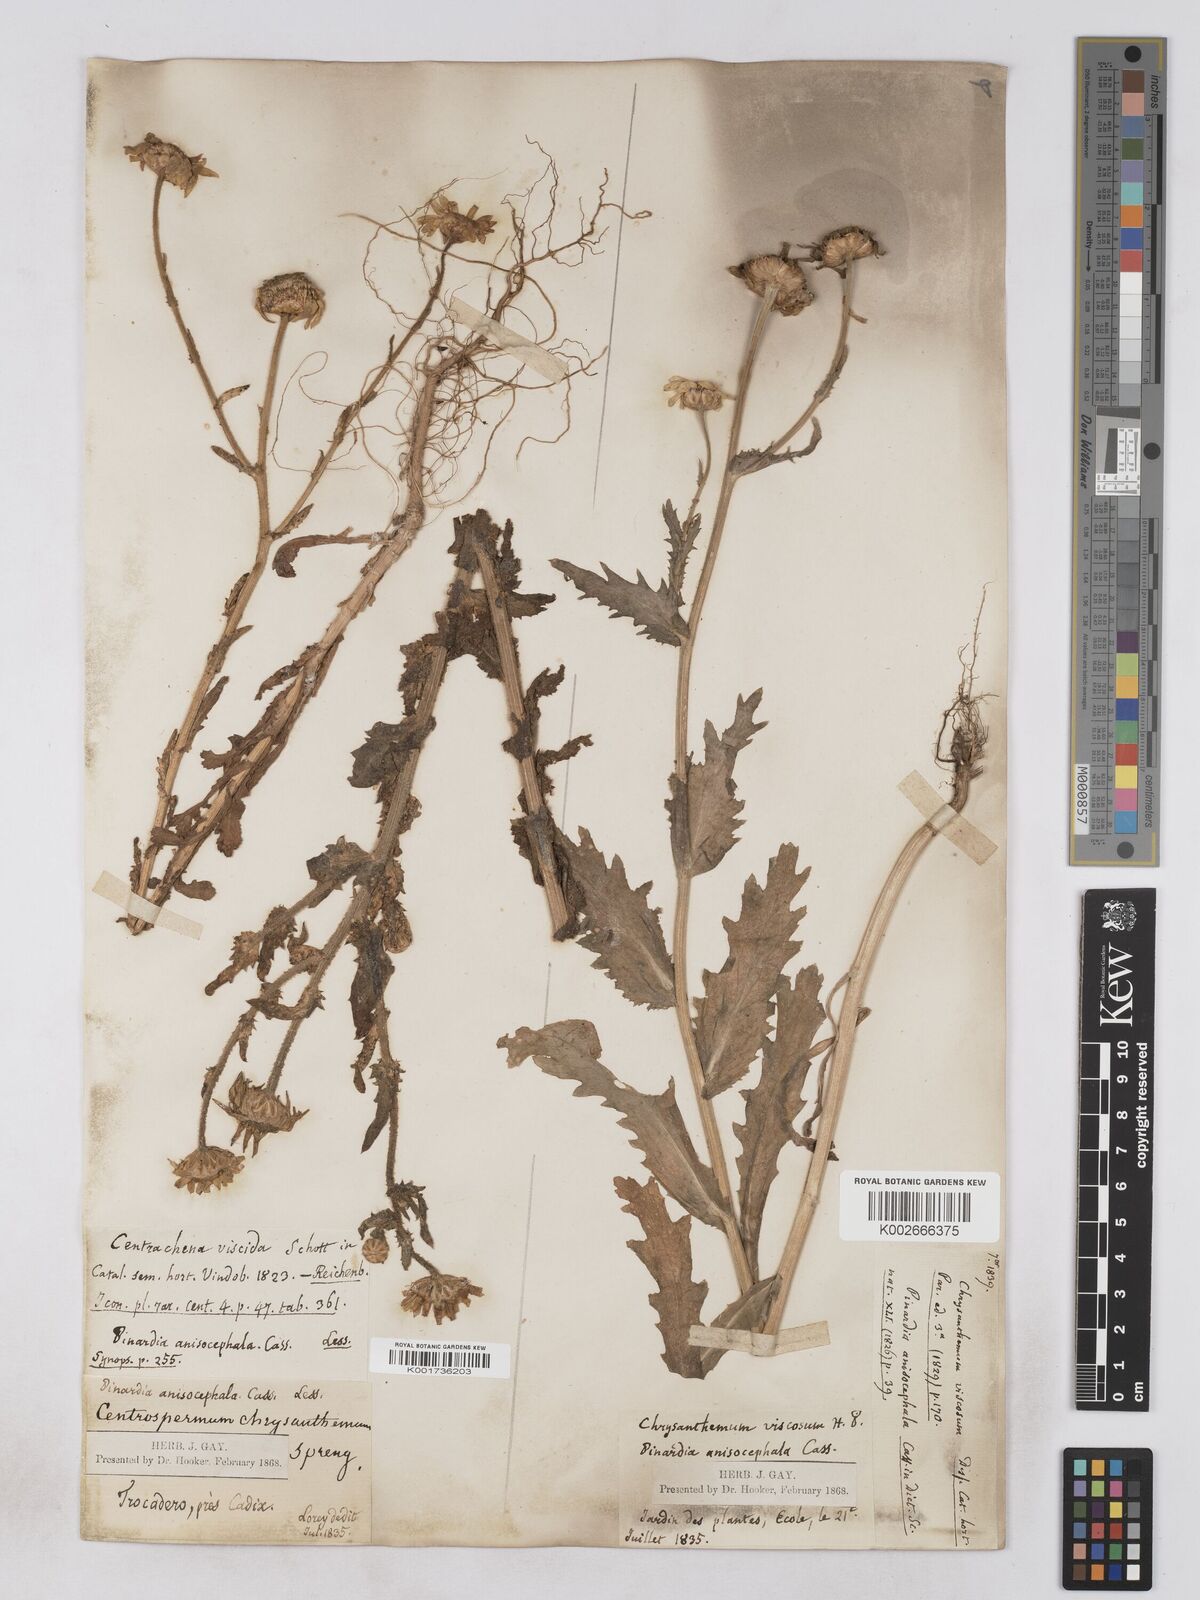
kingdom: Plantae
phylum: Tracheophyta
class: Magnoliopsida
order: Asterales
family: Asteraceae
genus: Heteranthemis
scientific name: Heteranthemis
